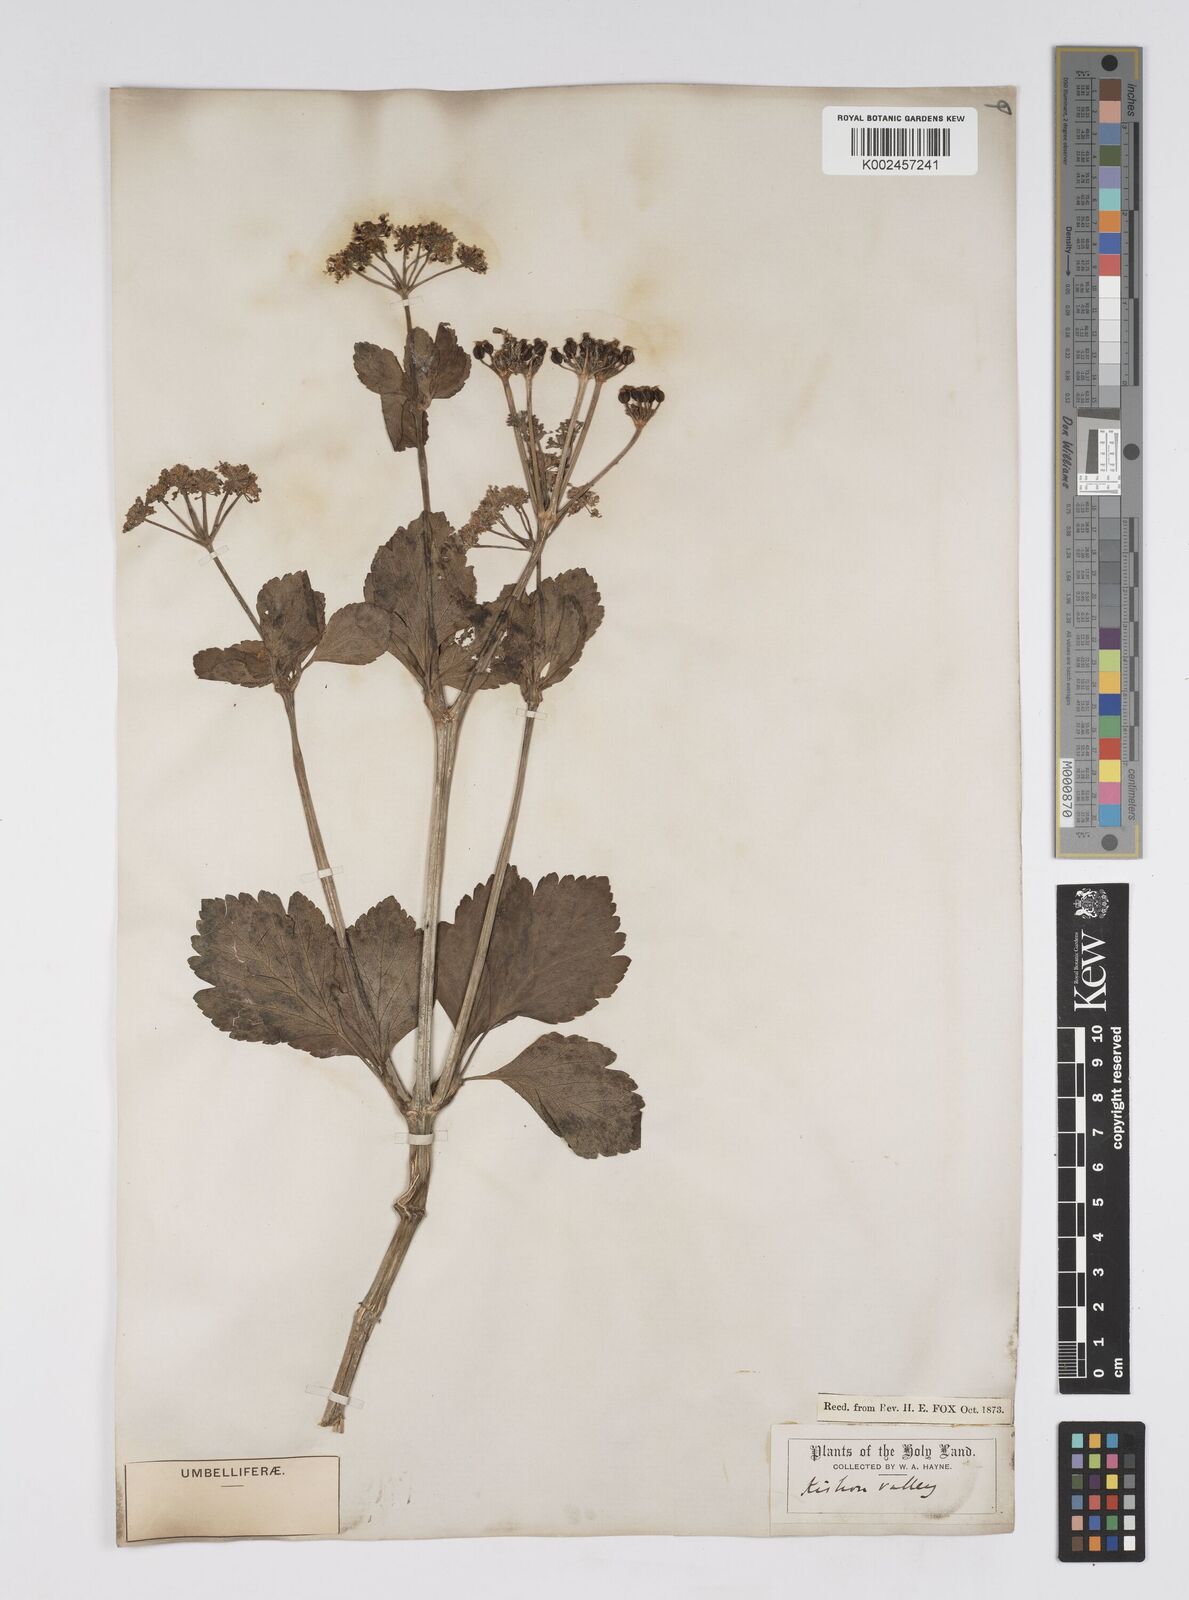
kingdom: Plantae
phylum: Tracheophyta
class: Magnoliopsida
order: Apiales
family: Apiaceae
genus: Smyrnium
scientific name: Smyrnium olusatrum
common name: Alexanders
